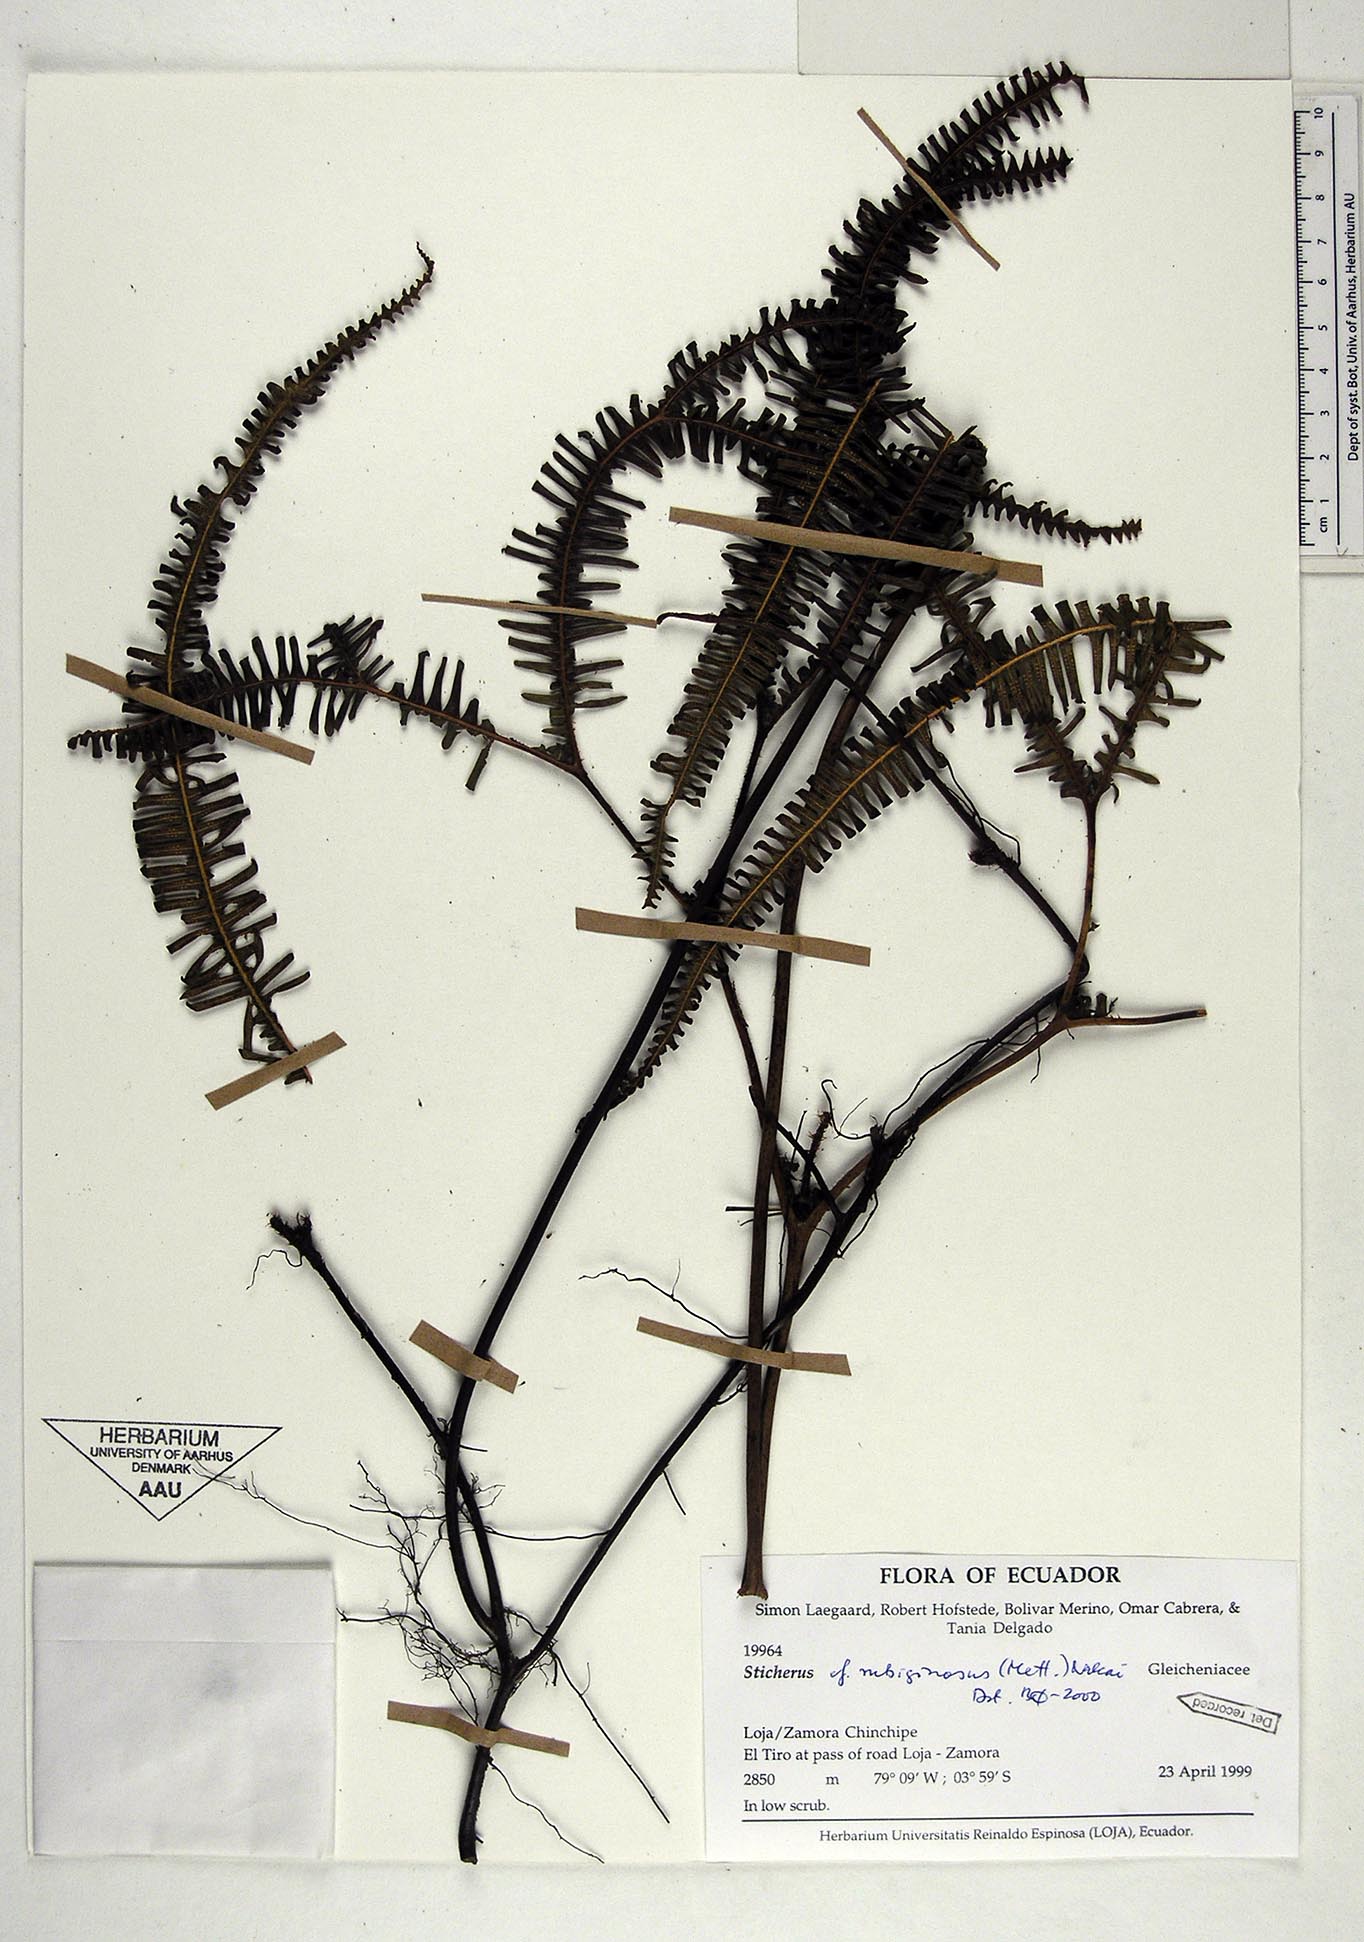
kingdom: Plantae
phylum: Tracheophyta
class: Polypodiopsida
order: Gleicheniales
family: Gleicheniaceae
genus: Sticherus
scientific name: Sticherus rubiginosus
